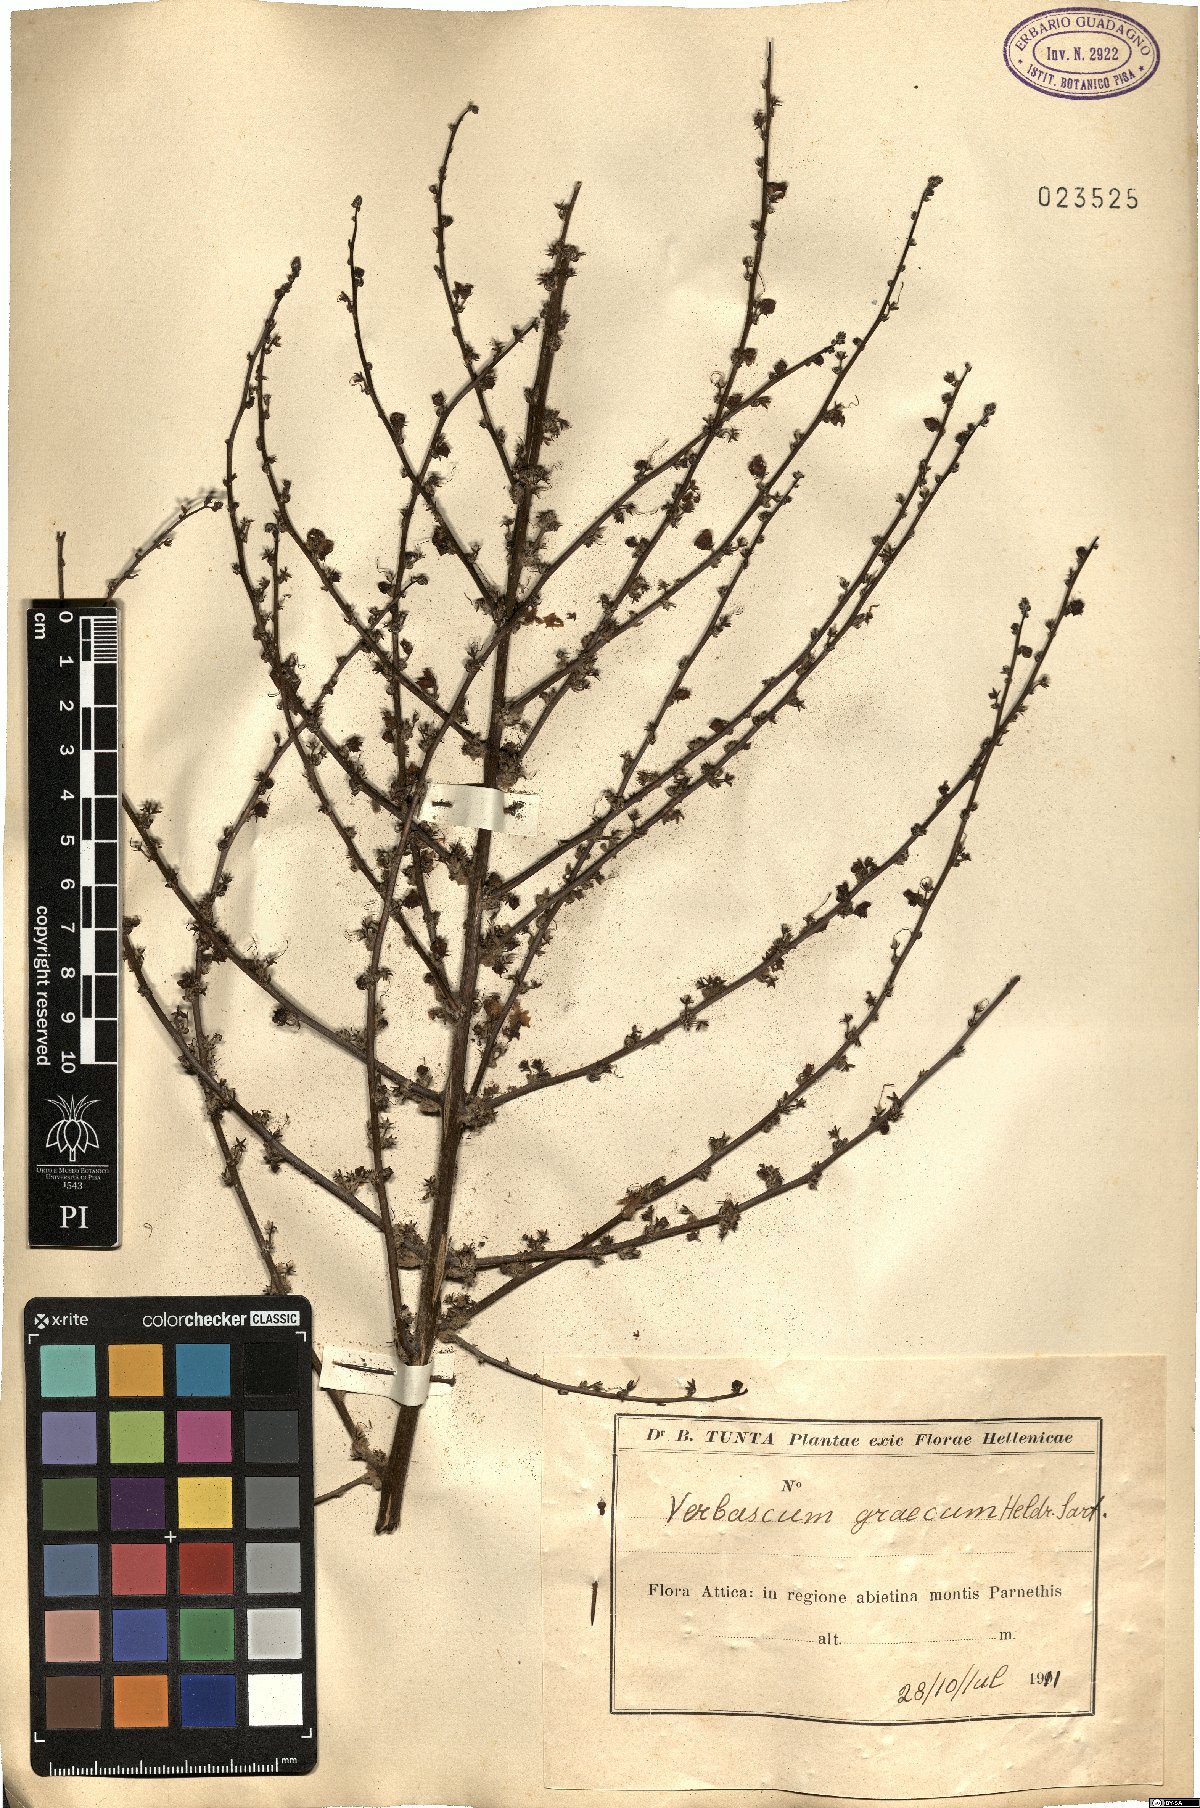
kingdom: Plantae
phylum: Tracheophyta
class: Magnoliopsida
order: Lamiales
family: Scrophulariaceae
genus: Verbascum
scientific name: Verbascum graecum
